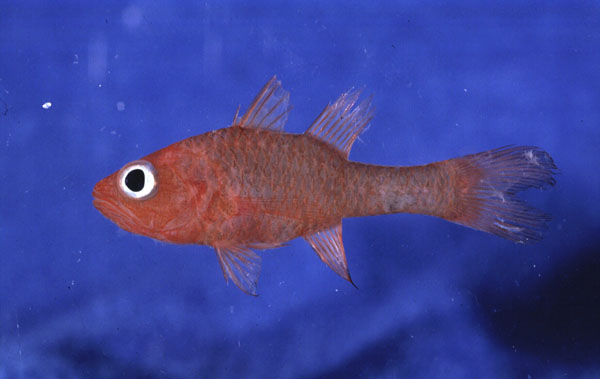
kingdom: Animalia
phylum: Chordata
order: Perciformes
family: Apogonidae
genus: Apogon
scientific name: Apogon coccineus
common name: Ruby cardinalfish
